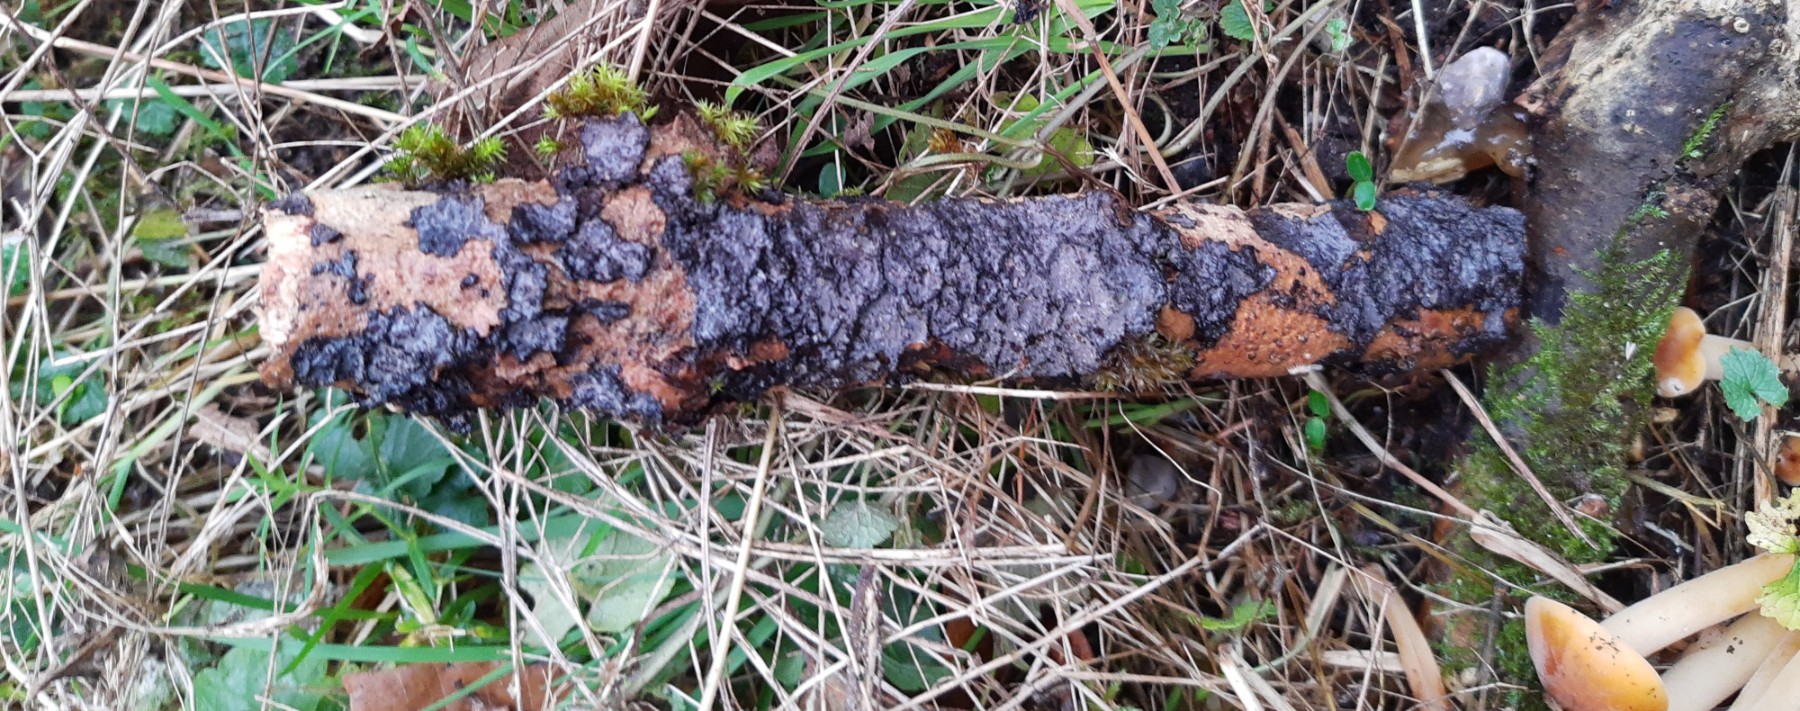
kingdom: Fungi
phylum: Basidiomycota
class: Agaricomycetes
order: Russulales
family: Peniophoraceae
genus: Peniophora
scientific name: Peniophora limitata
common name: mørkrandet voksskind
